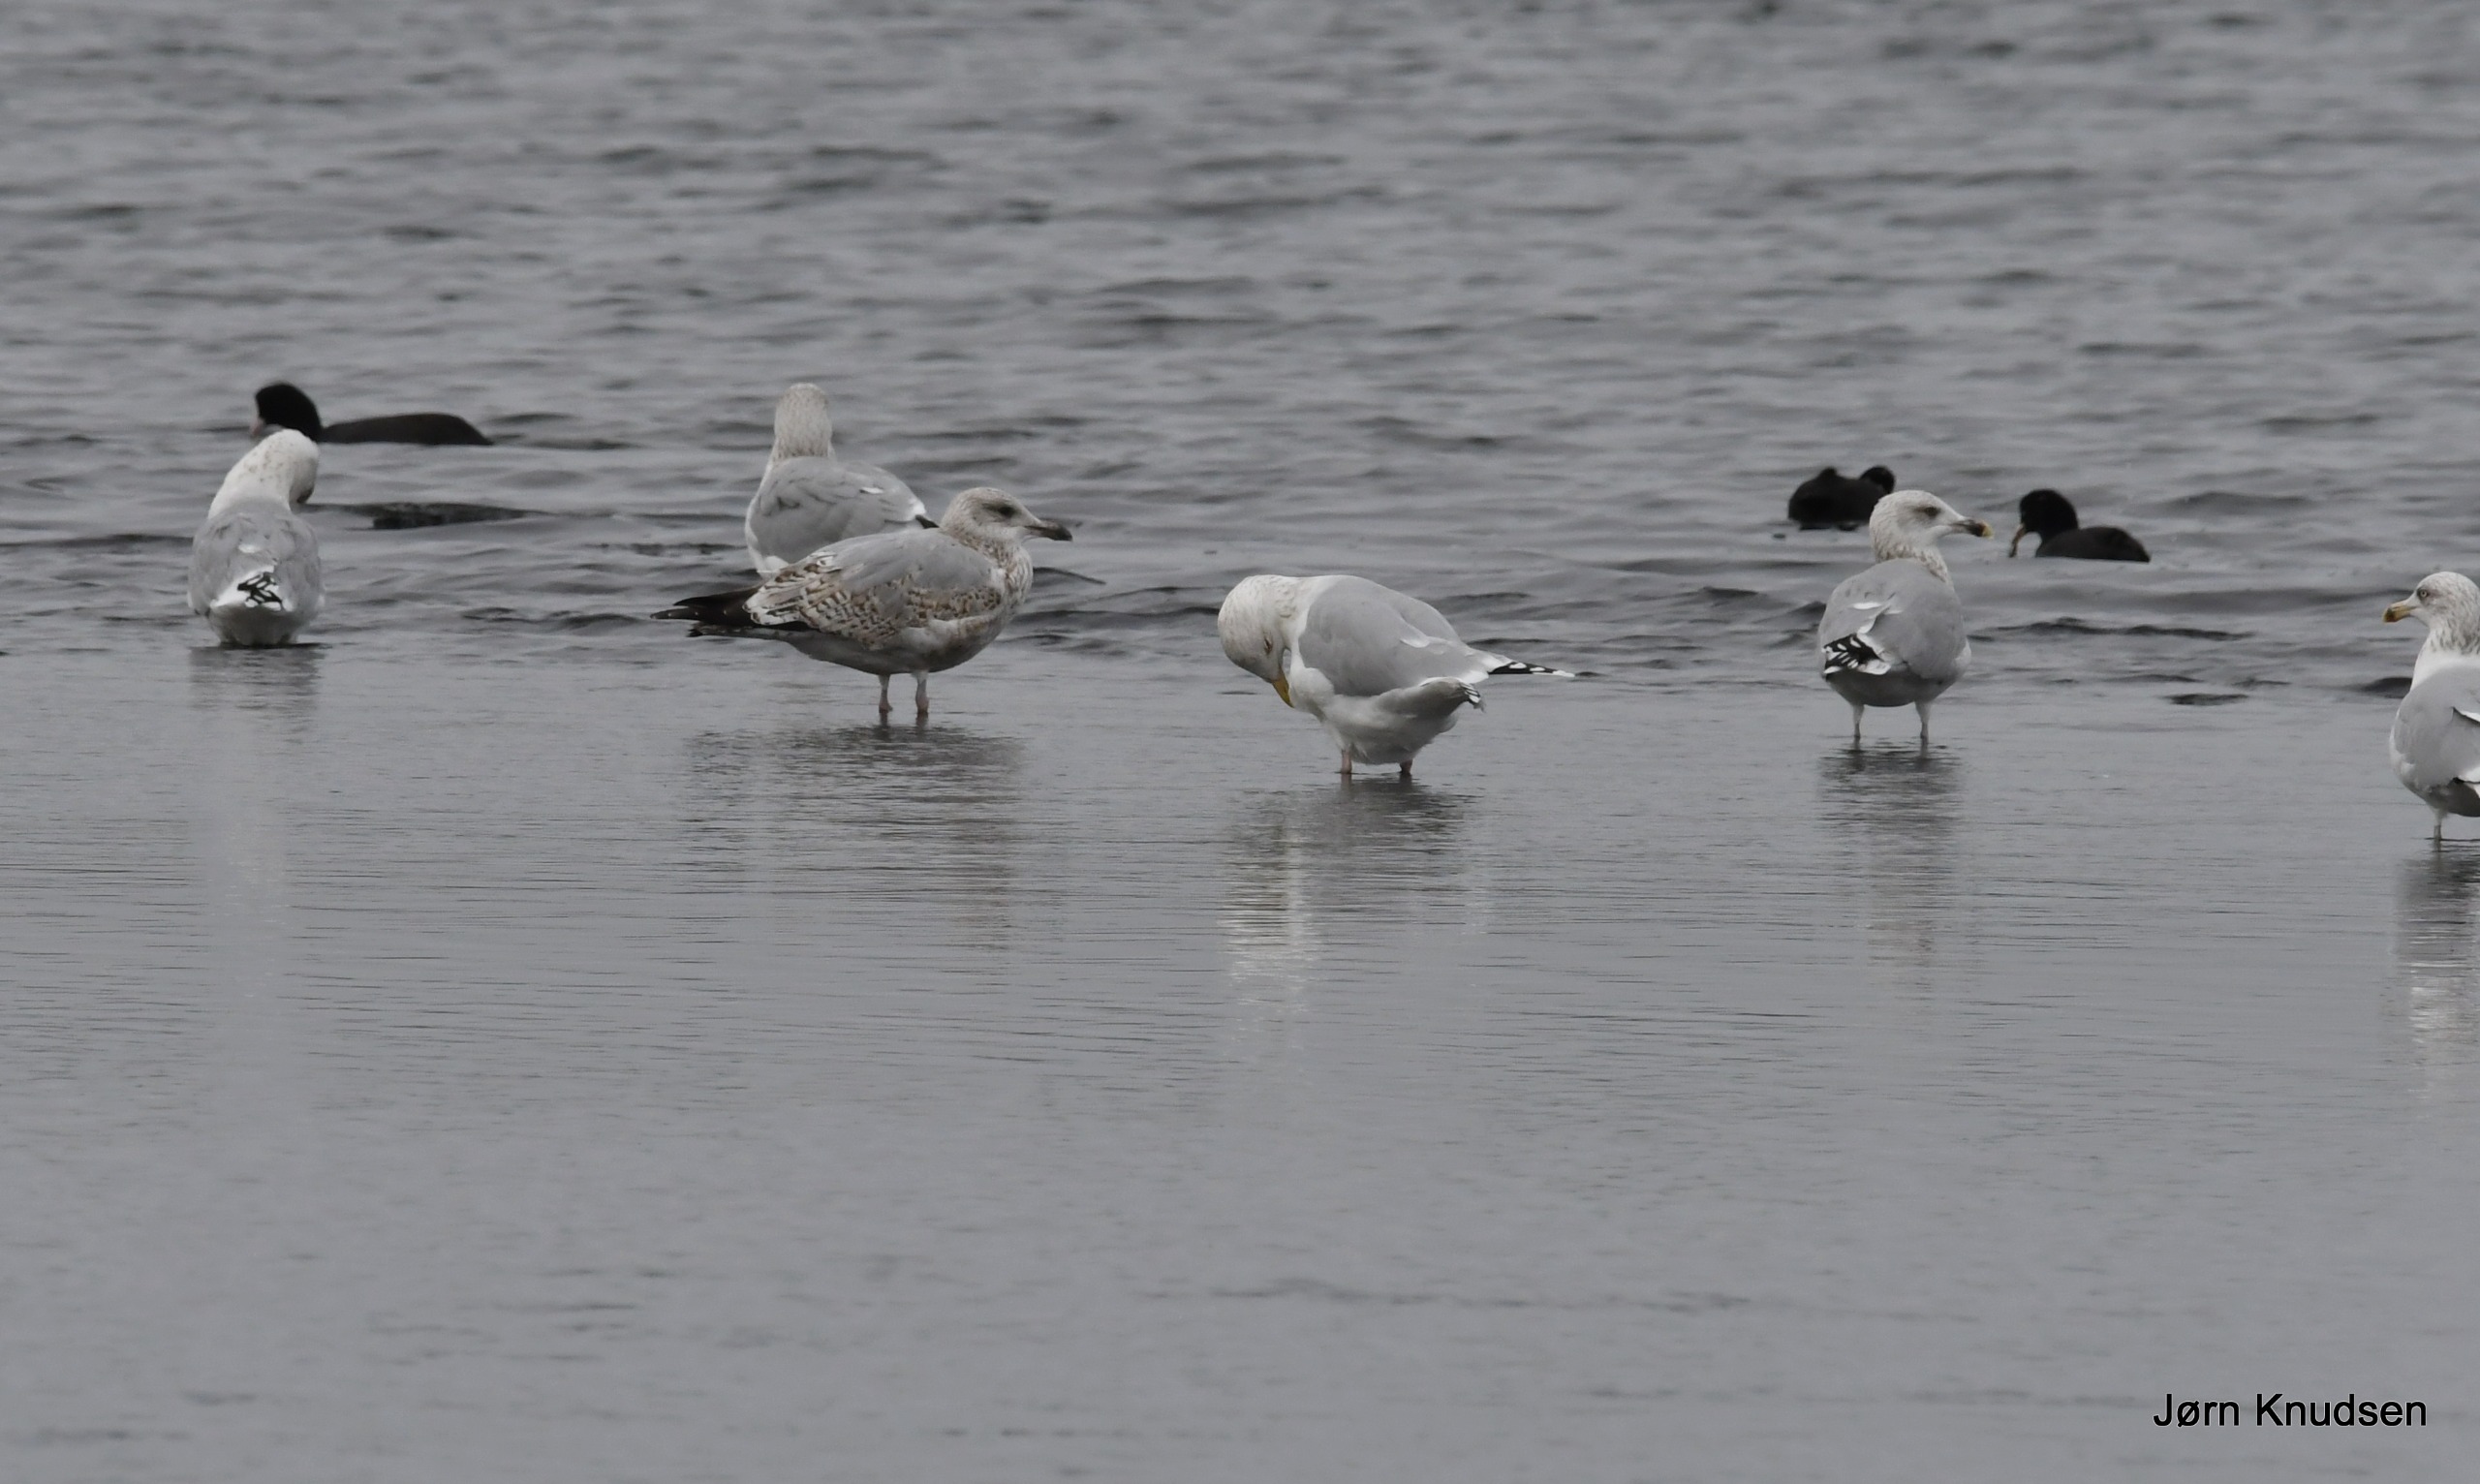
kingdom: Animalia
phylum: Chordata
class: Aves
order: Charadriiformes
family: Laridae
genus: Larus
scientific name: Larus argentatus
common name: Sølvmåge
